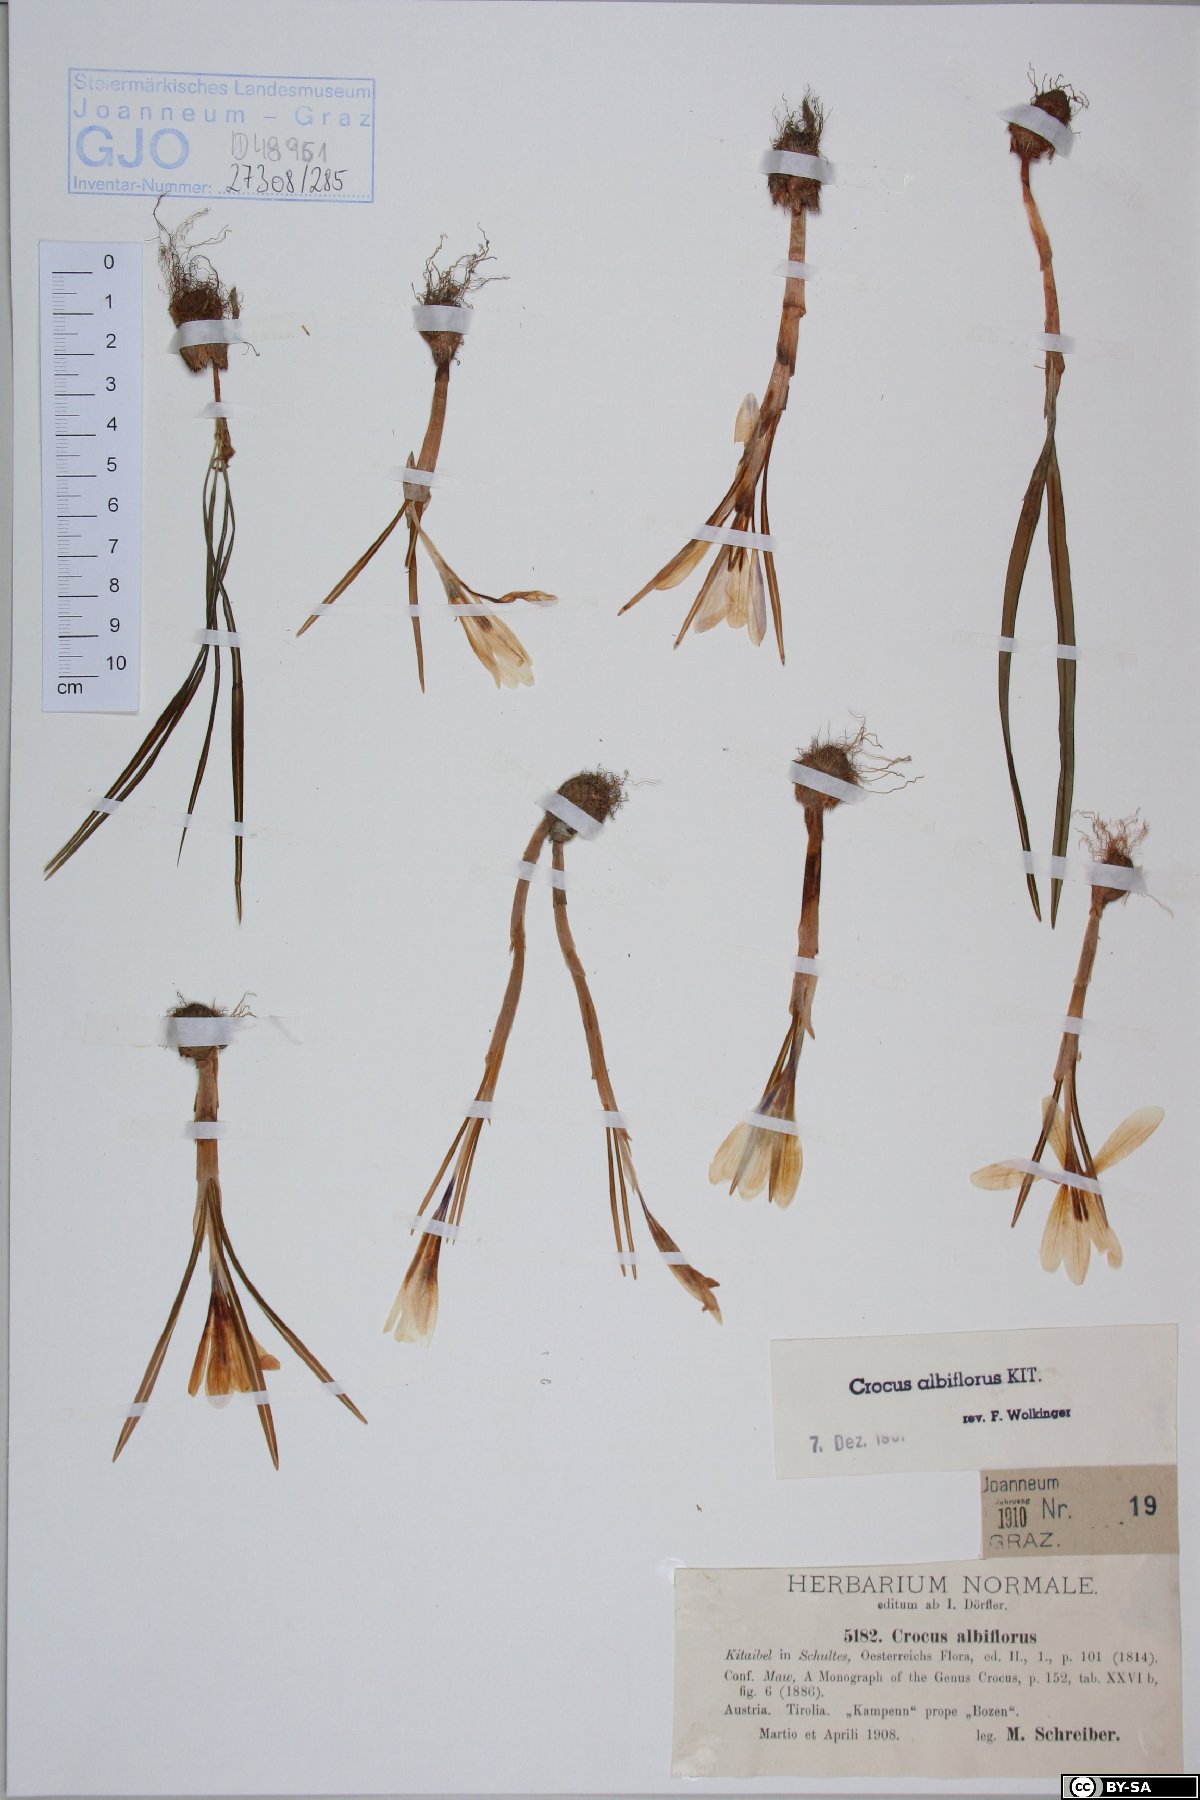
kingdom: Plantae
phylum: Tracheophyta
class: Liliopsida
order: Asparagales
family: Iridaceae
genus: Crocus
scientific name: Crocus vernus
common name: Spring crocus
